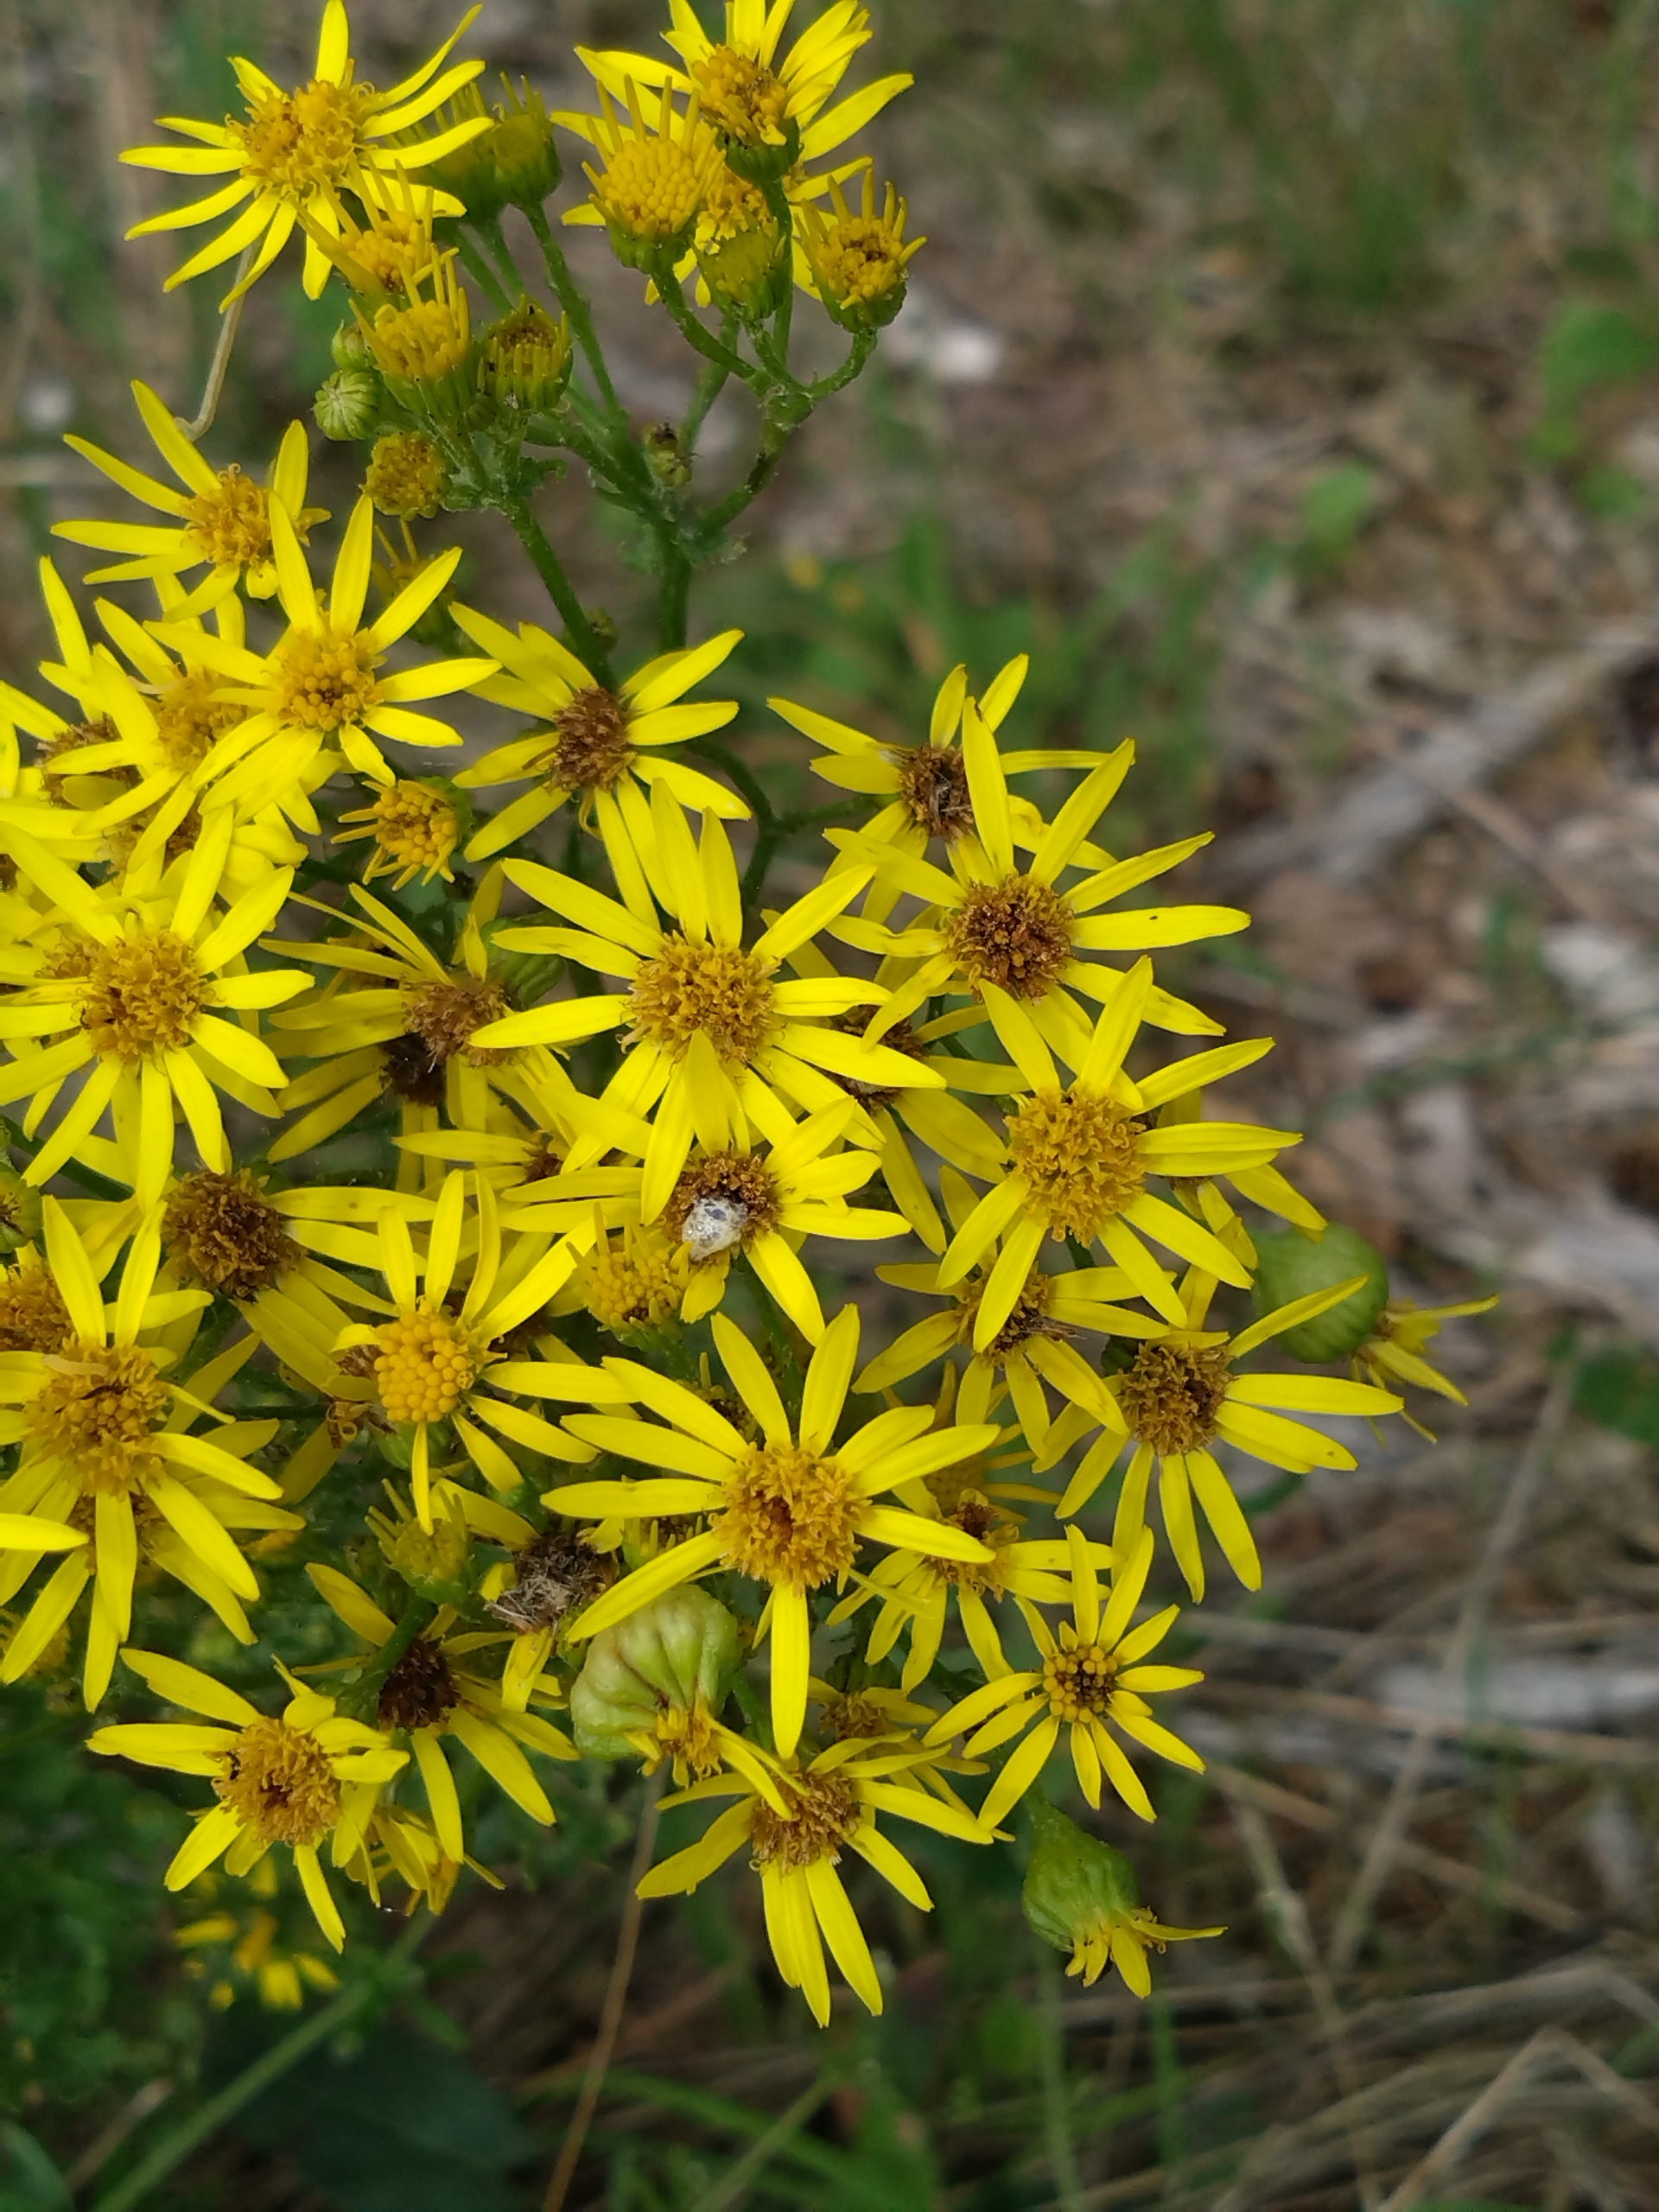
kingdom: Animalia
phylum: Arthropoda
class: Insecta
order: Diptera
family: Anthomyiidae
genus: Botanophila
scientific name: Botanophila seneciella
